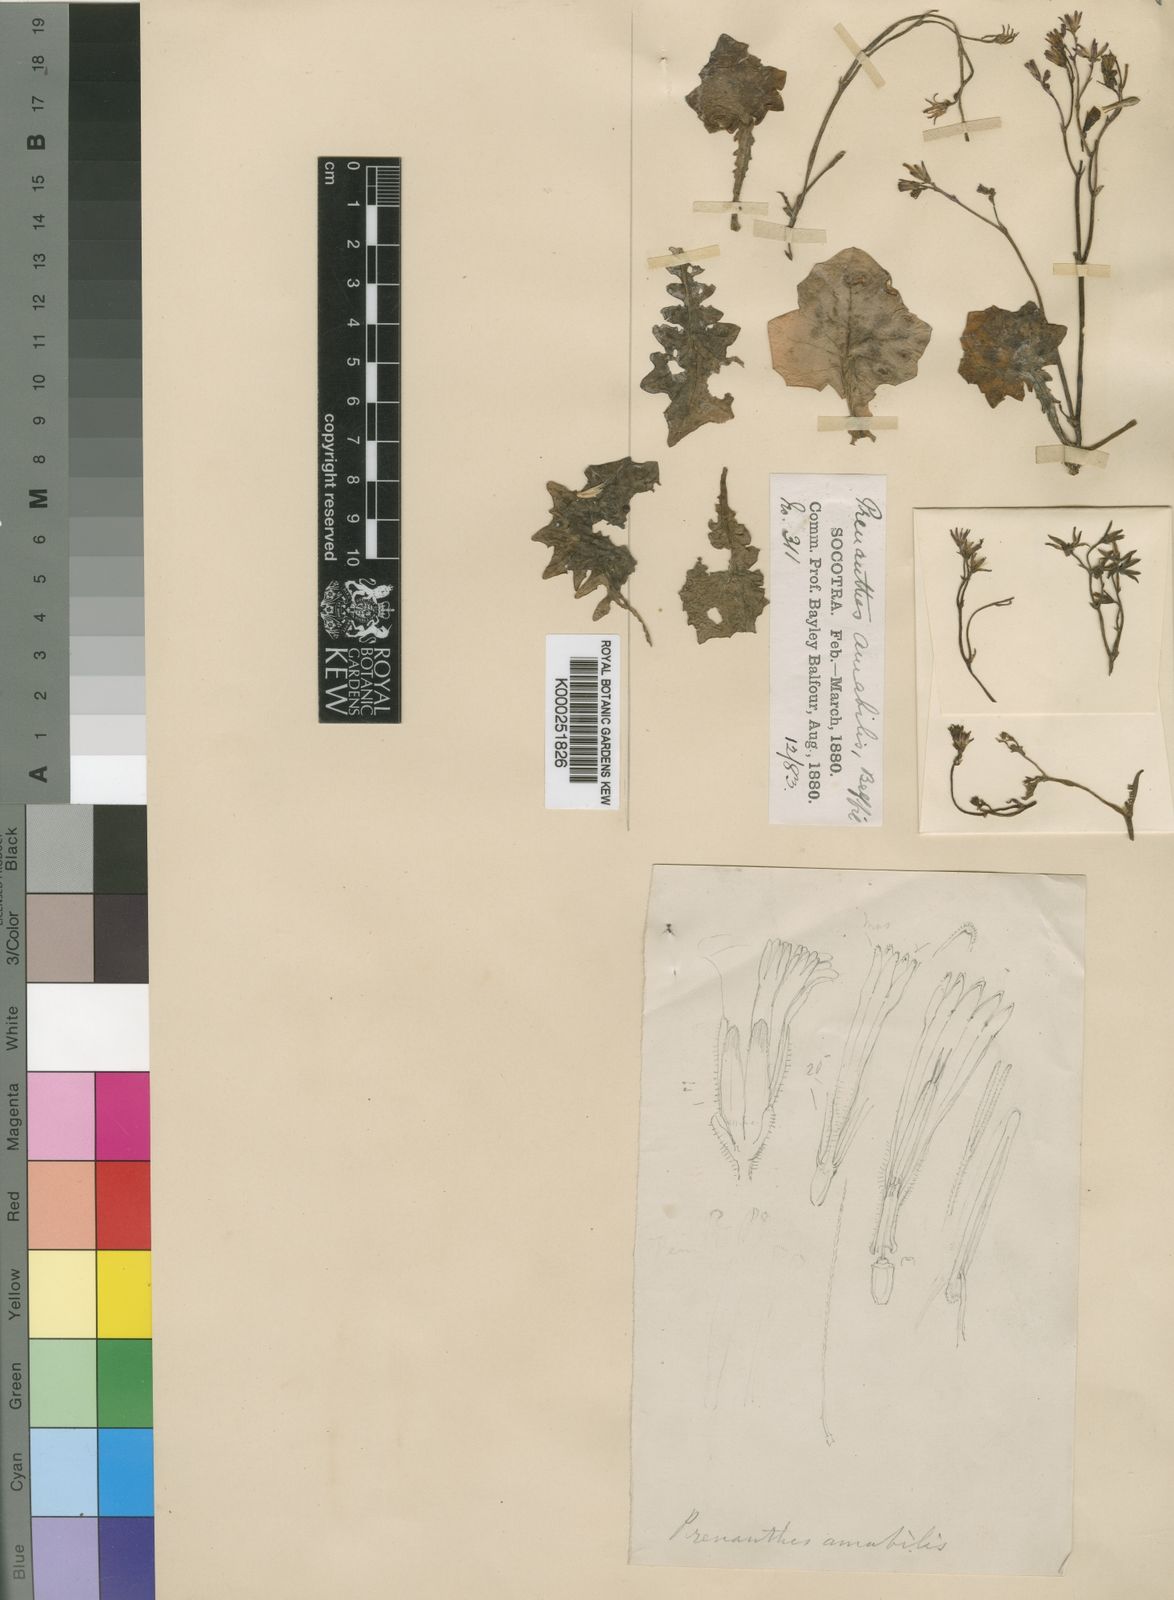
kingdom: Plantae
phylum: Tracheophyta
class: Magnoliopsida
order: Asterales
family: Asteraceae
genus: Erythroseris
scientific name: Erythroseris amabilis
